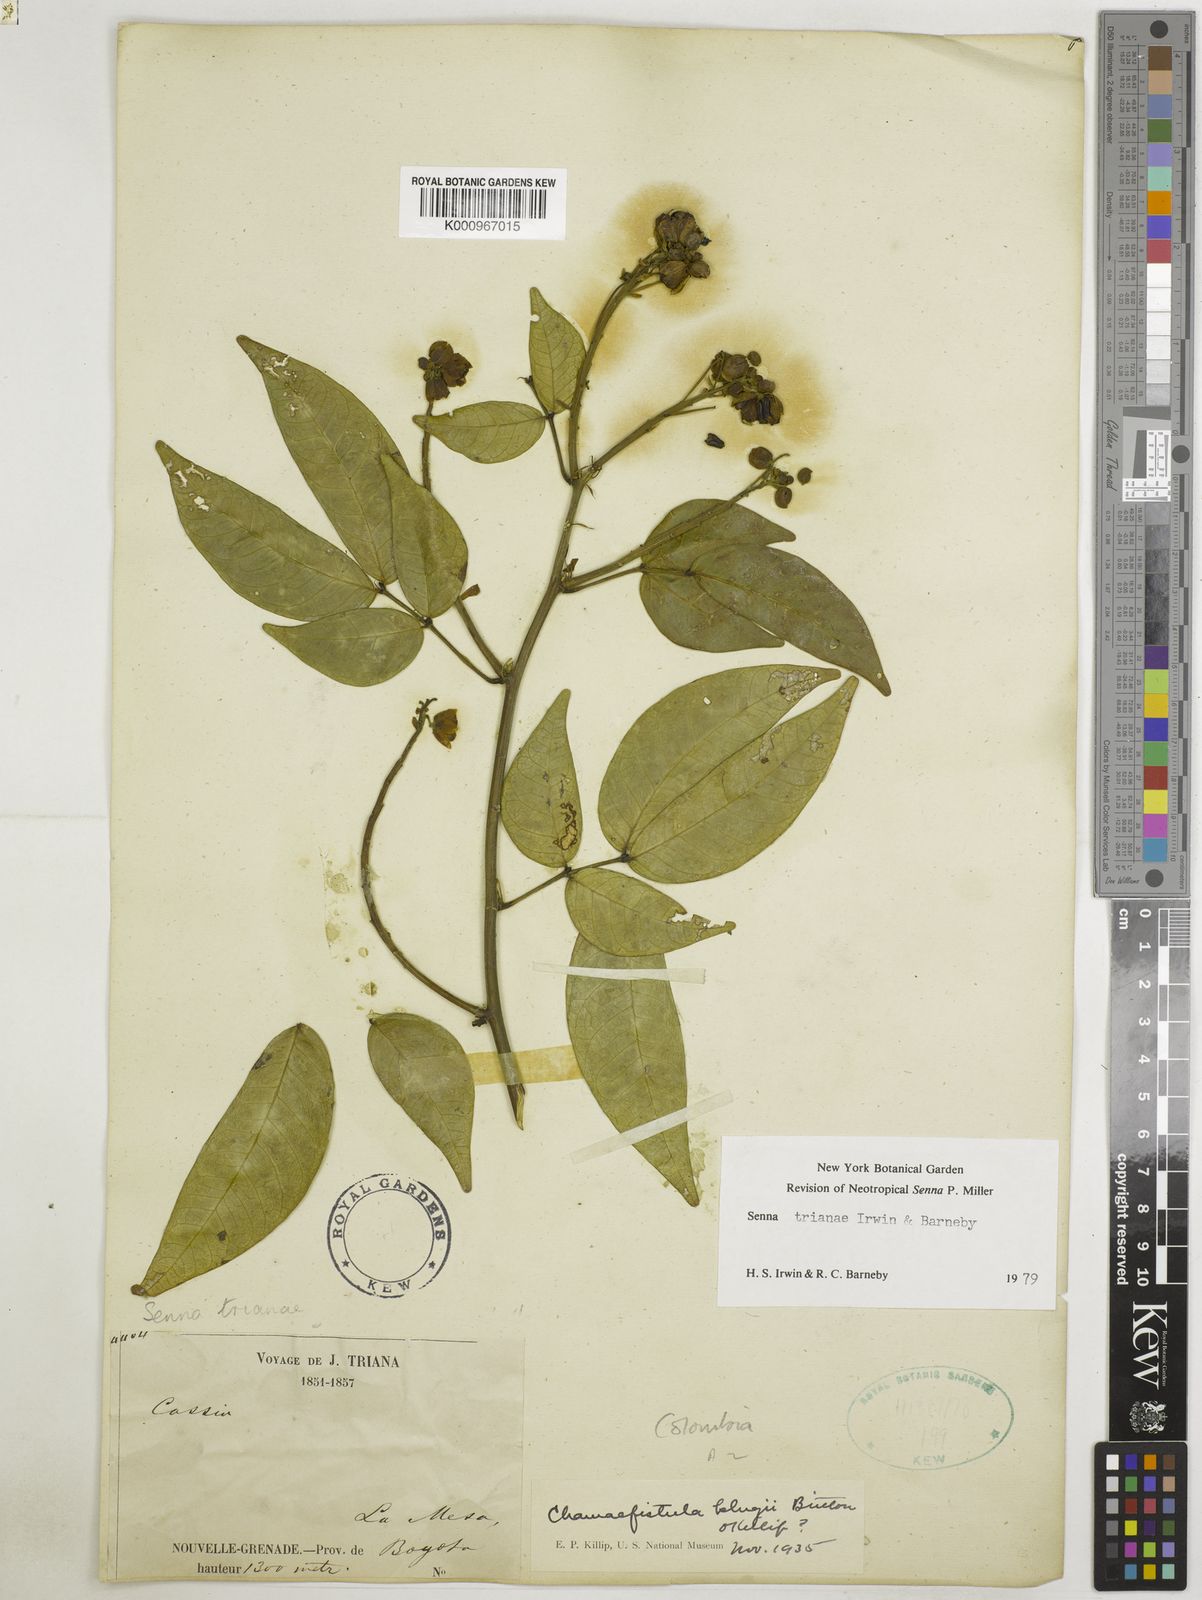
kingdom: Plantae
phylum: Tracheophyta
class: Magnoliopsida
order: Fabales
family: Fabaceae
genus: Senna
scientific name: Senna trianae
